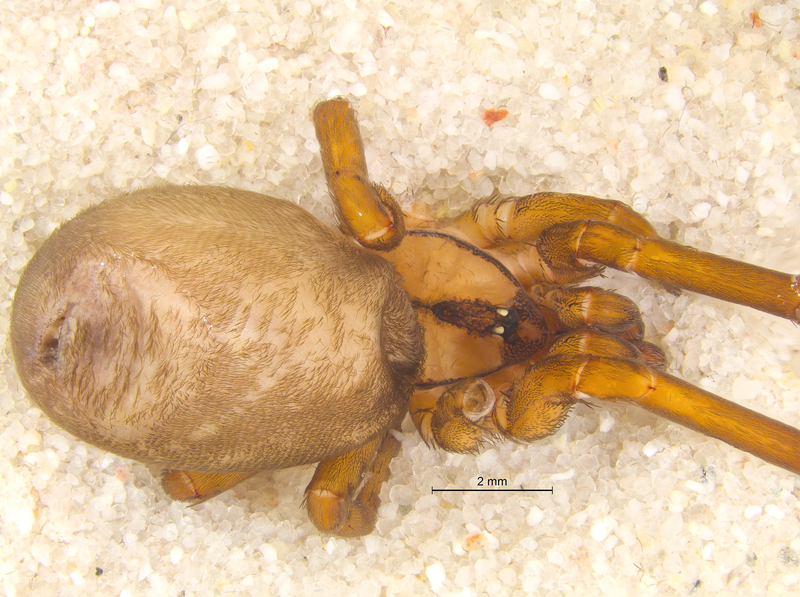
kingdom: Animalia
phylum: Arthropoda
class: Arachnida
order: Araneae
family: Filistatidae
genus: Filistata
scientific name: Filistata insidiatrix
